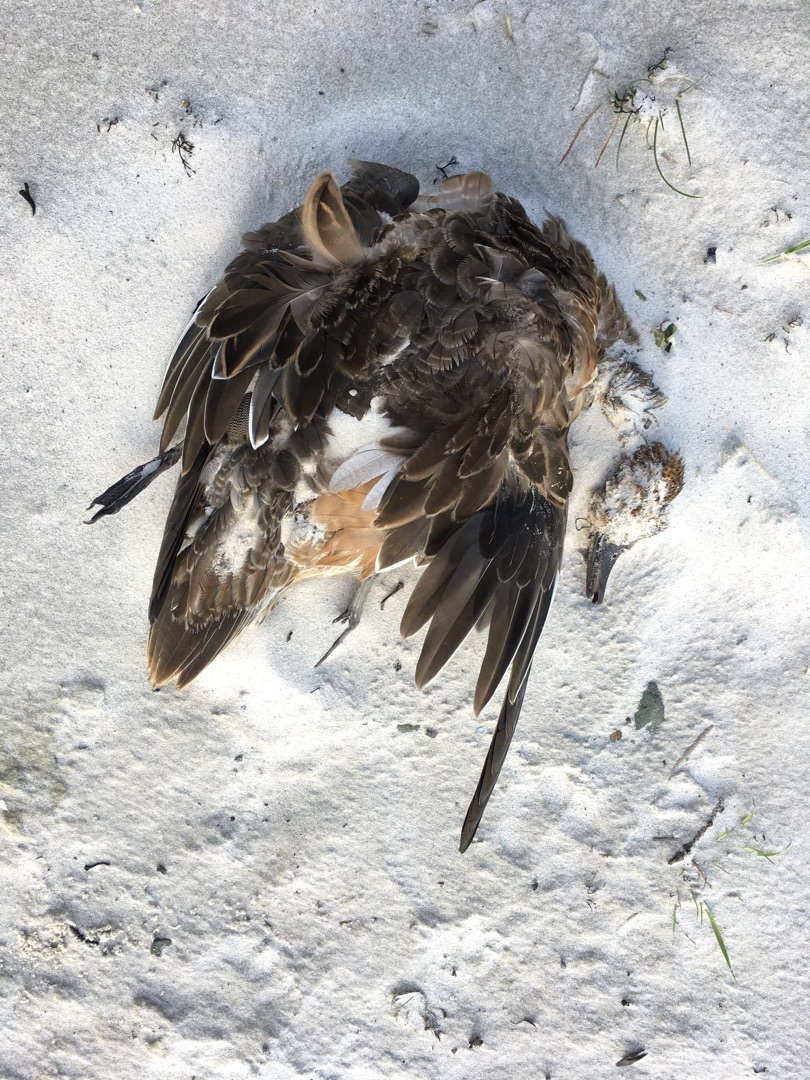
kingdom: Animalia
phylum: Chordata
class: Aves
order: Anseriformes
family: Anatidae
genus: Mareca
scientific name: Mareca penelope
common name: Pibeand
